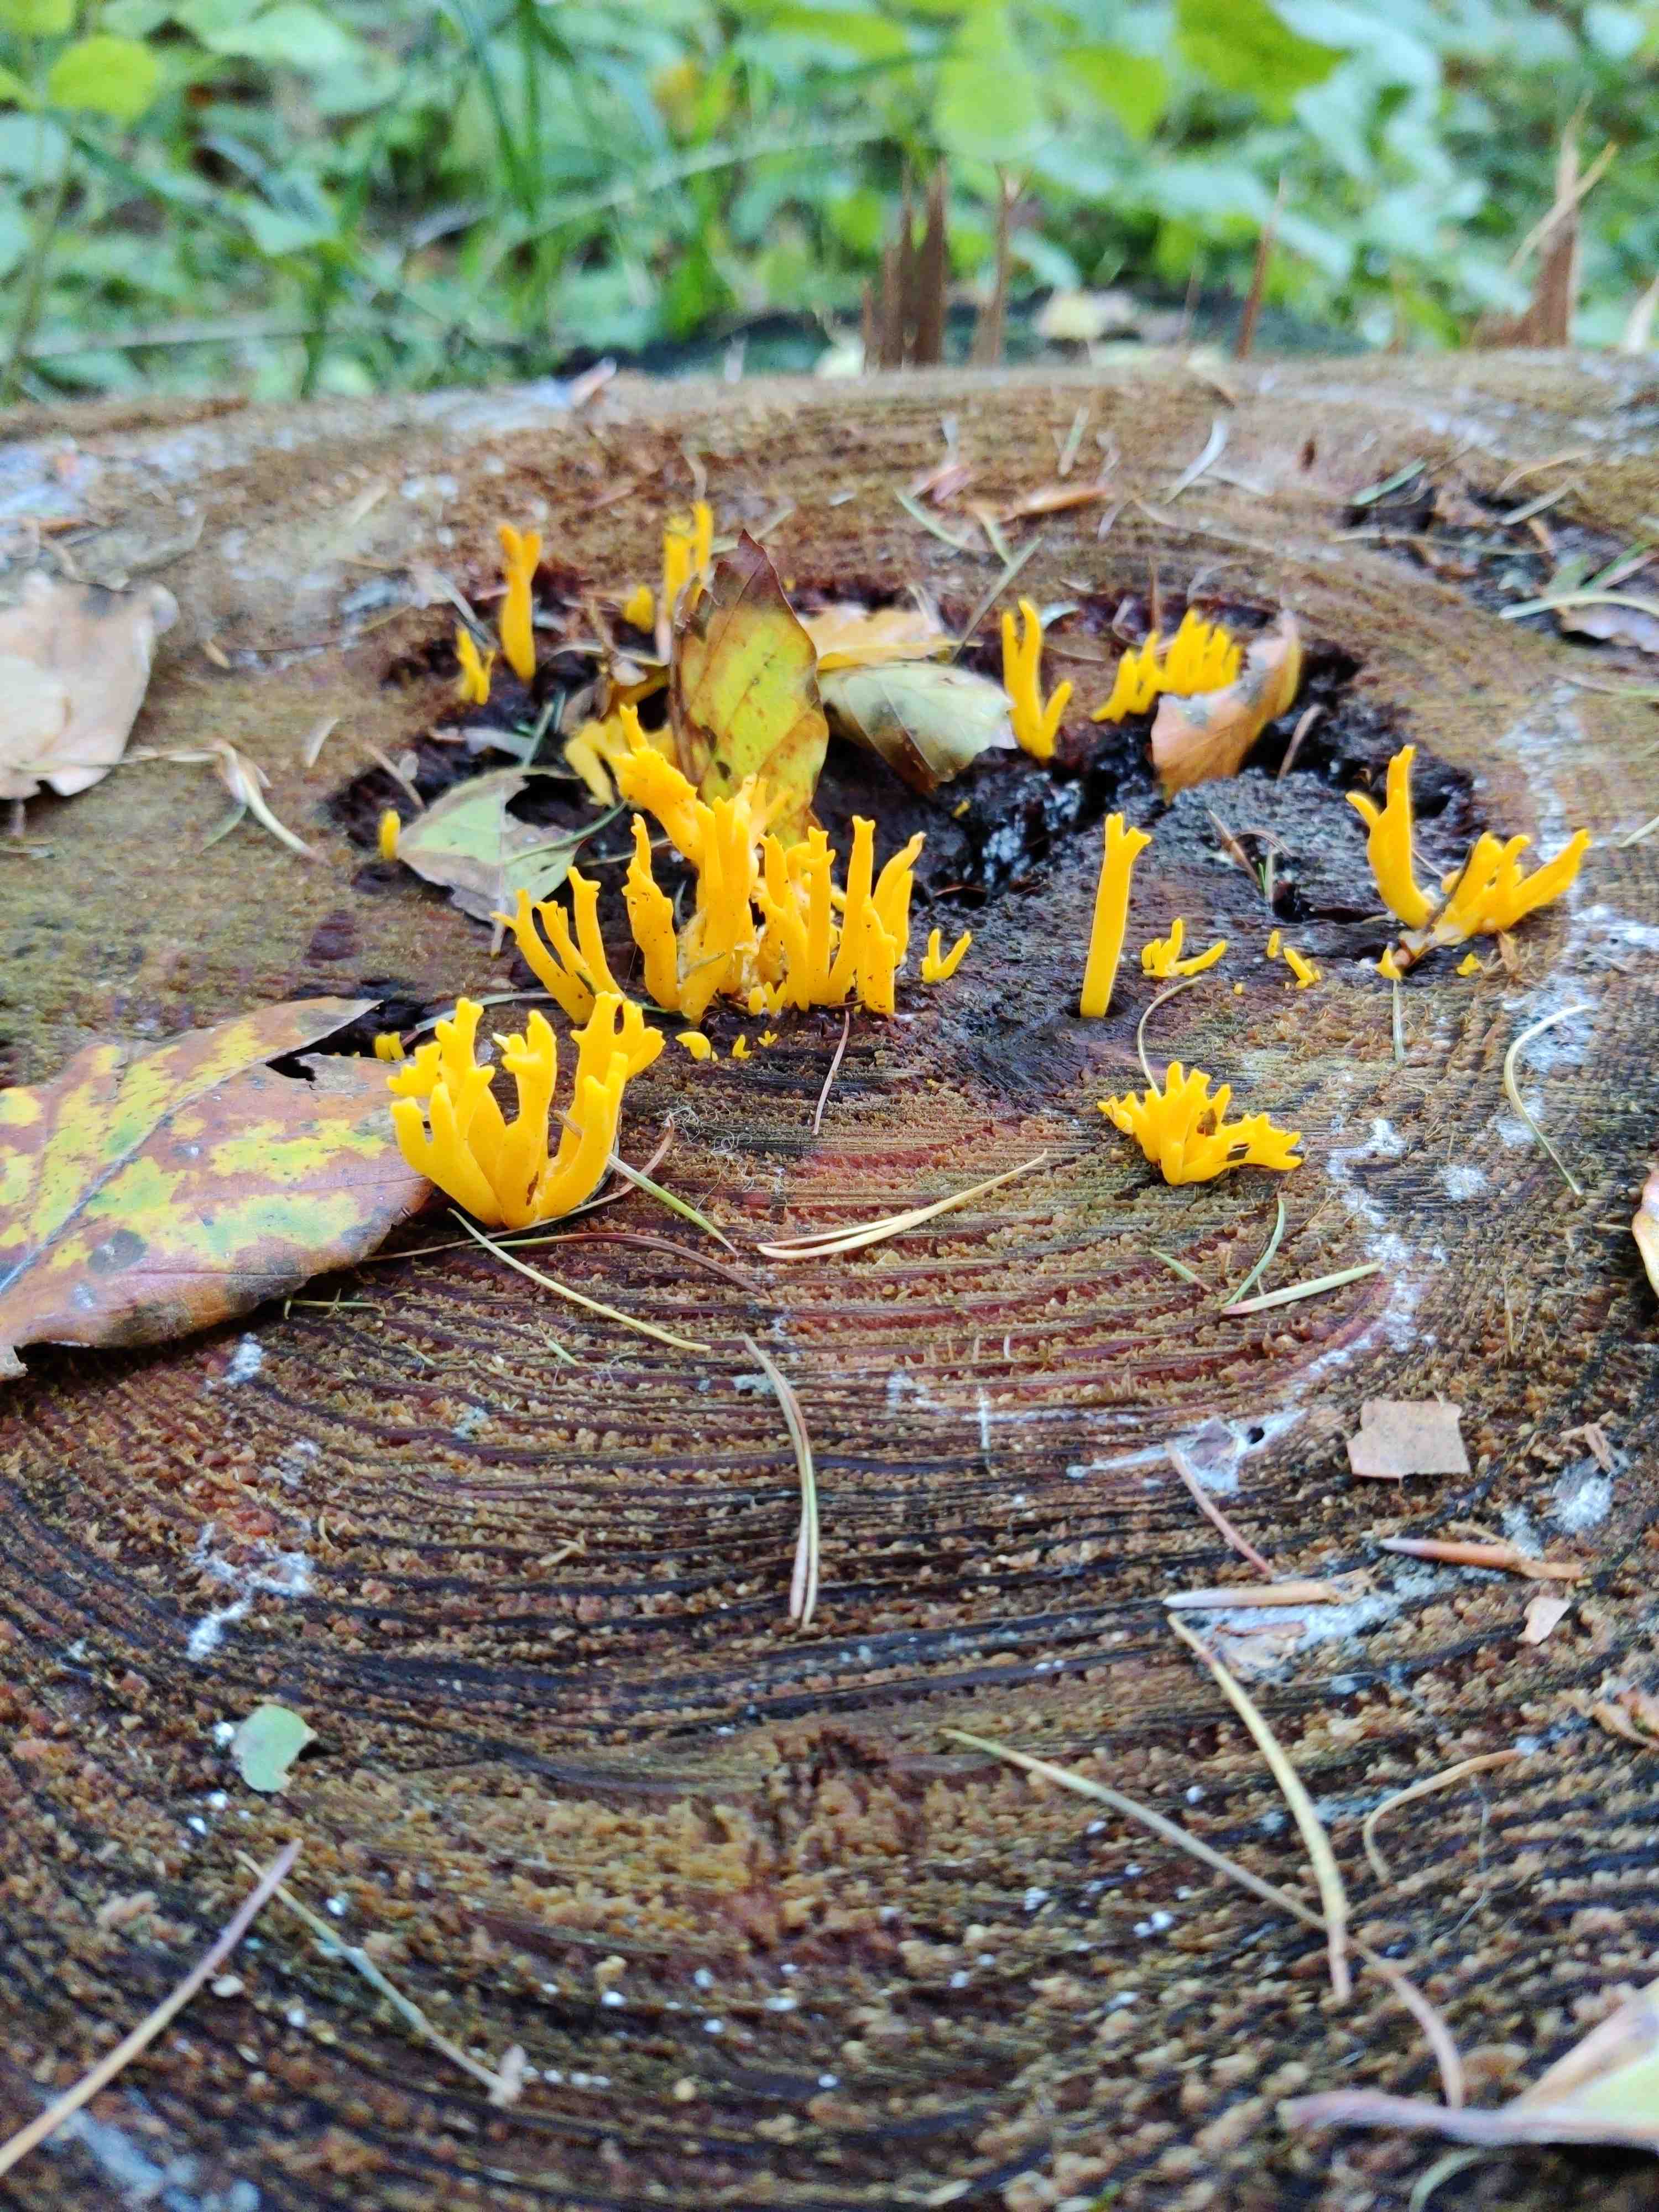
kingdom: Fungi
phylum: Basidiomycota
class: Dacrymycetes
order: Dacrymycetales
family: Dacrymycetaceae
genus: Calocera
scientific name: Calocera viscosa
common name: almindelig guldgaffel
